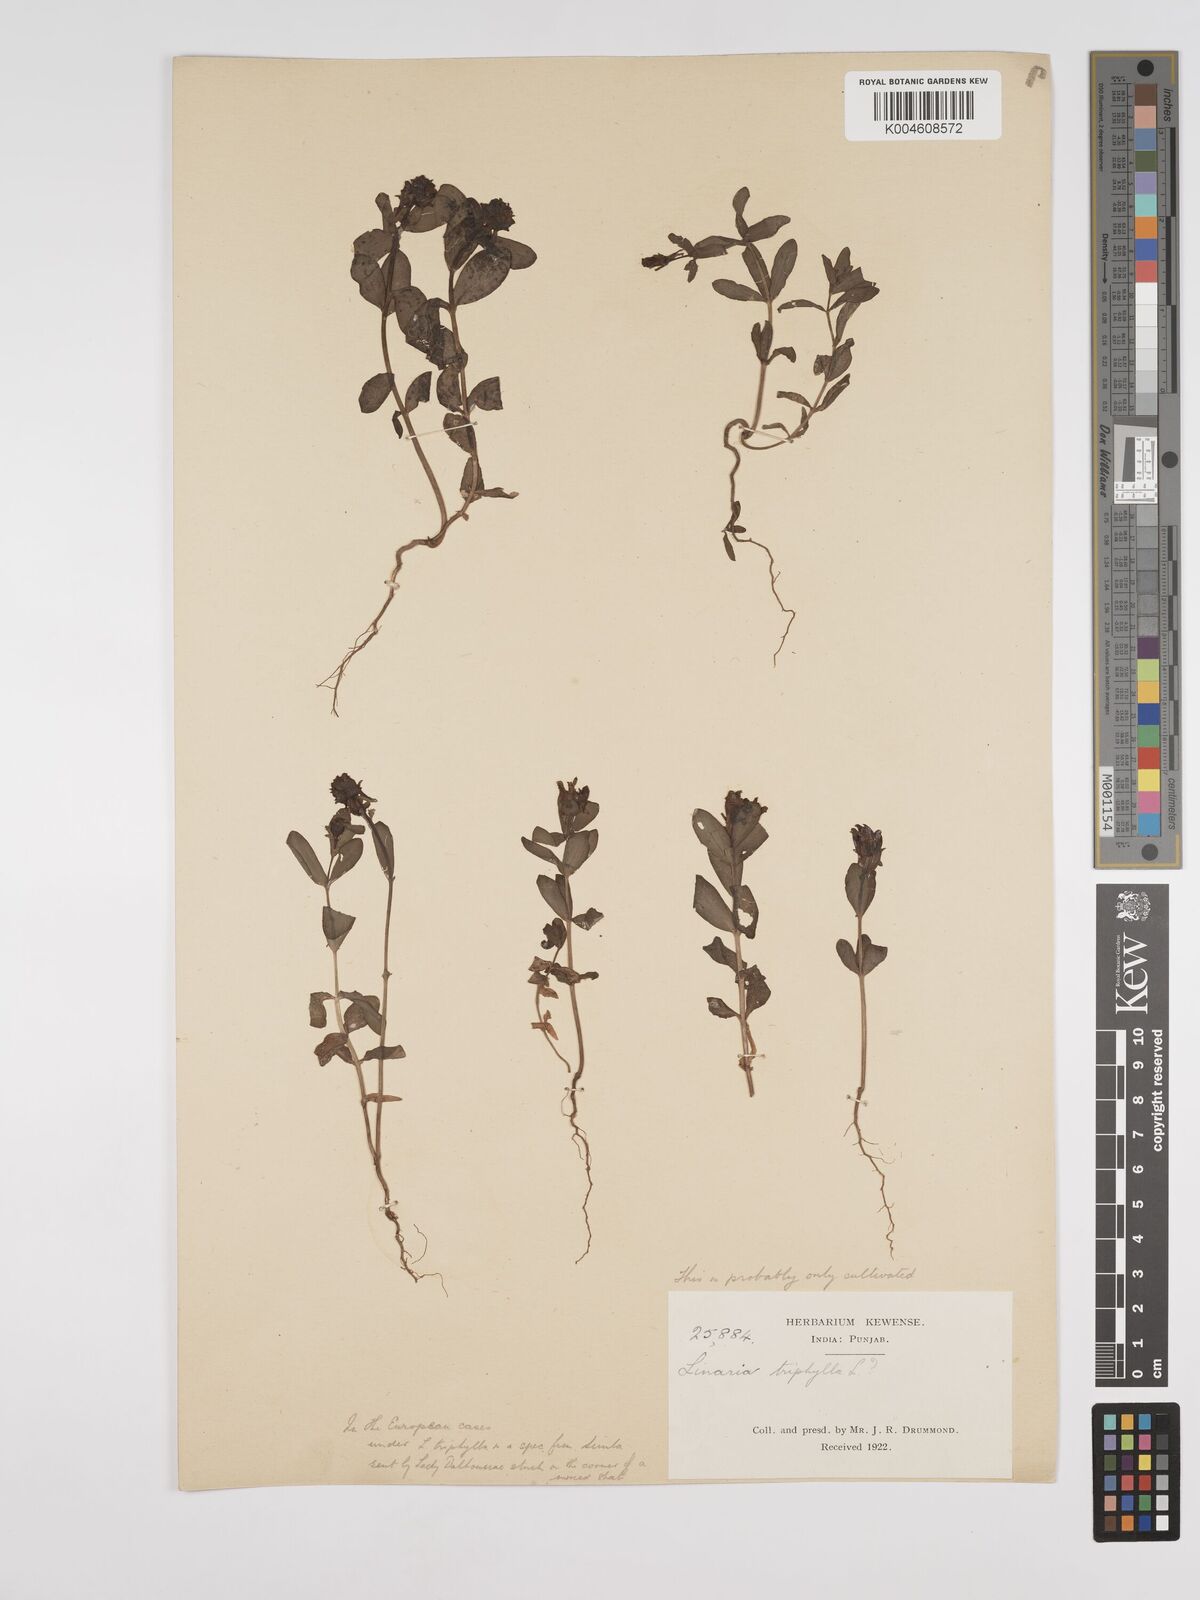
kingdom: Plantae
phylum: Tracheophyta
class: Magnoliopsida
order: Lamiales
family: Plantaginaceae
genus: Kickxia
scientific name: Kickxia
